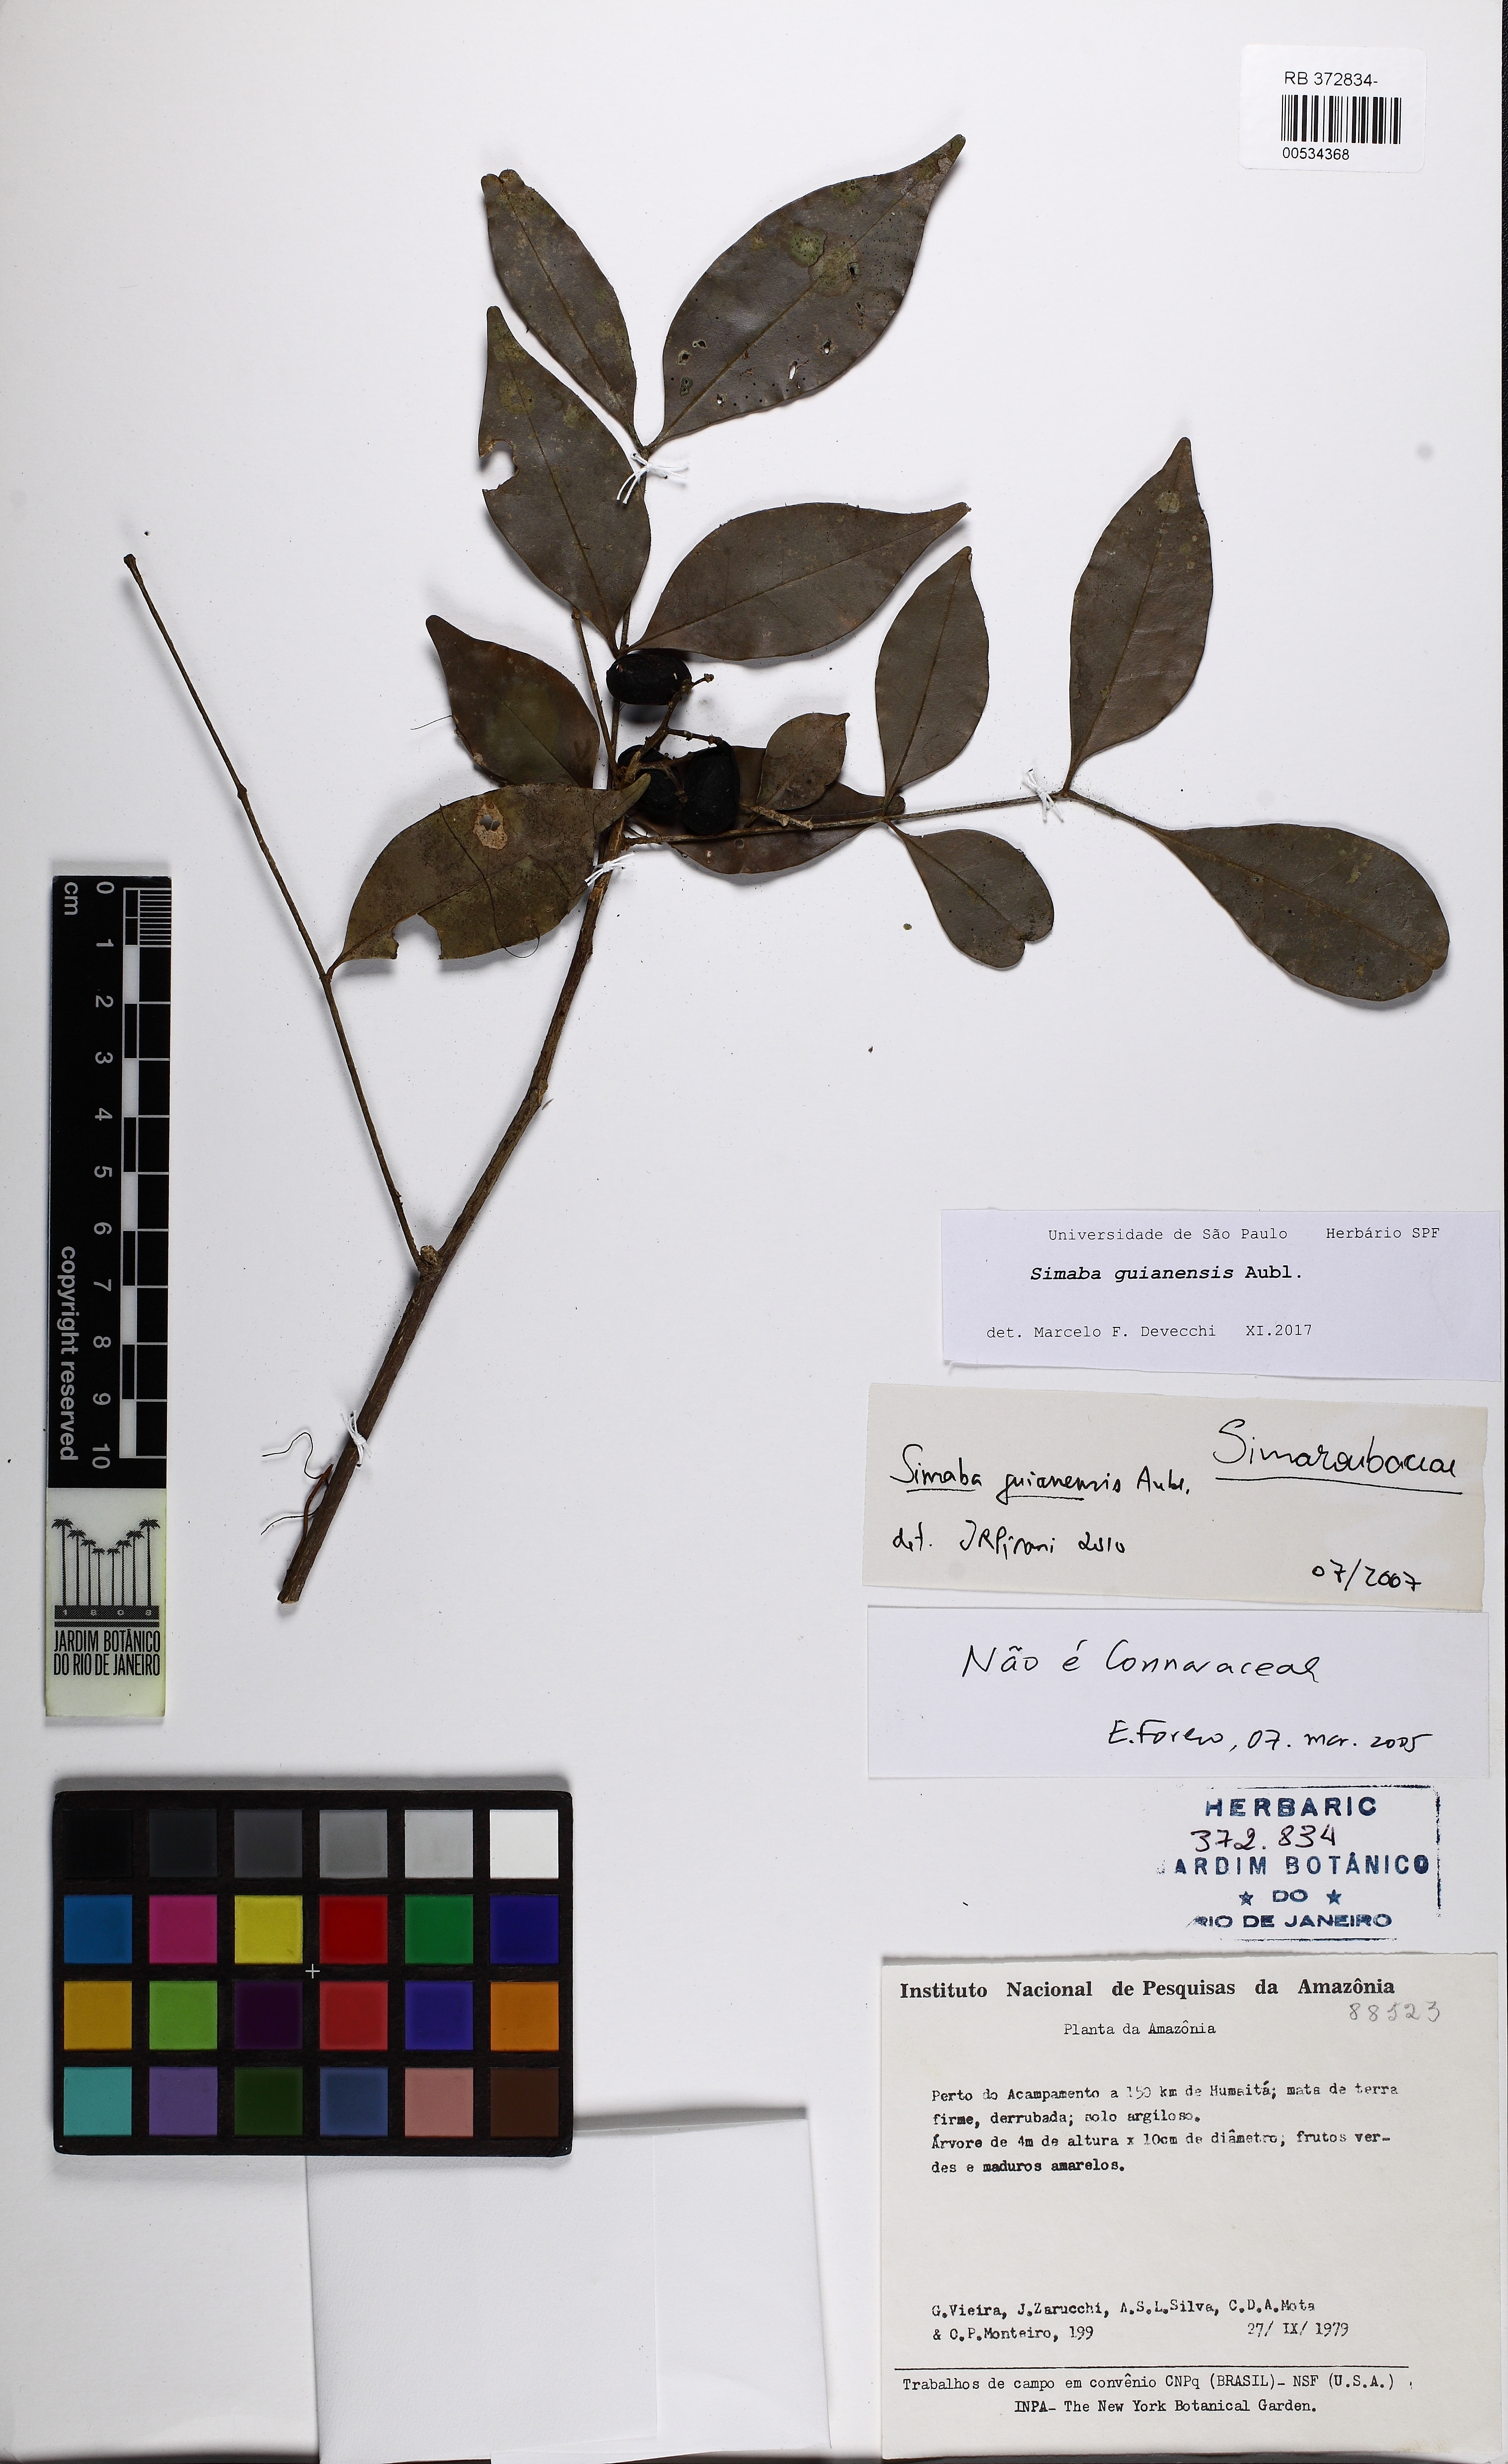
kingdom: Plantae
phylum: Tracheophyta
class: Magnoliopsida
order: Sapindales
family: Simaroubaceae
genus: Simaba
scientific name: Simaba guianensis
